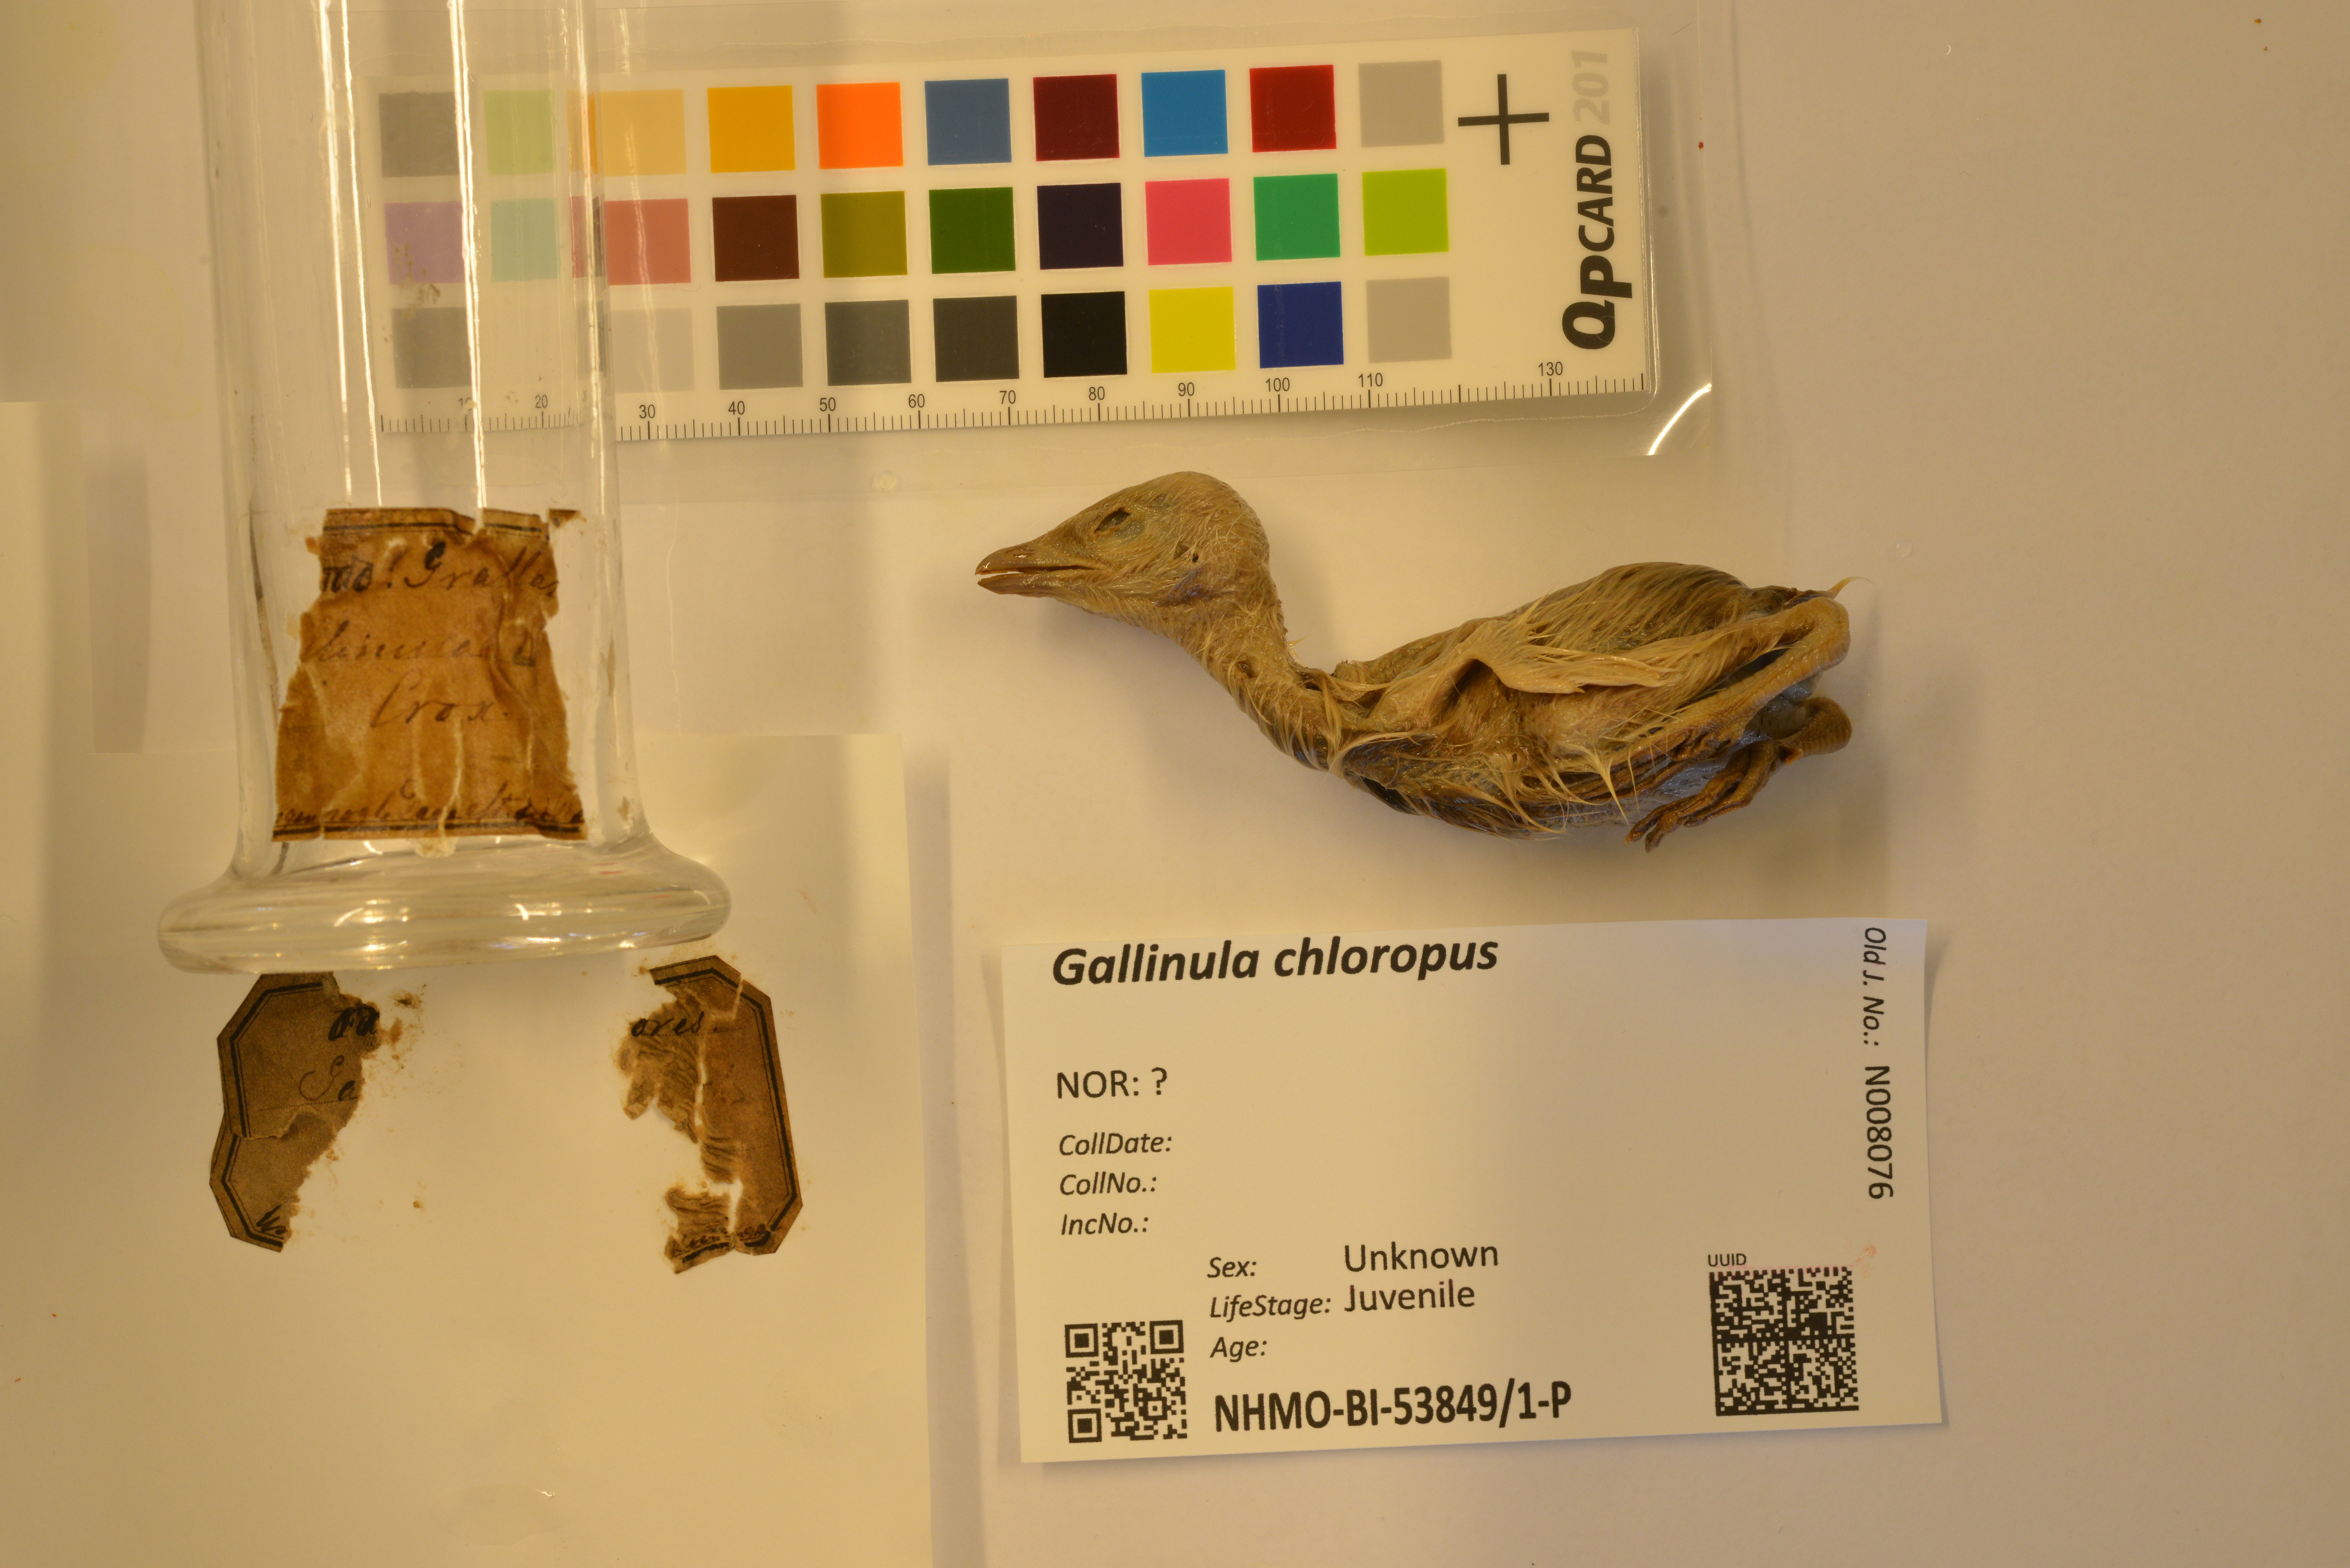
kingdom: Animalia
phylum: Chordata
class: Aves
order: Gruiformes
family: Rallidae
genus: Gallinula
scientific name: Gallinula chloropus
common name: Common moorhen
